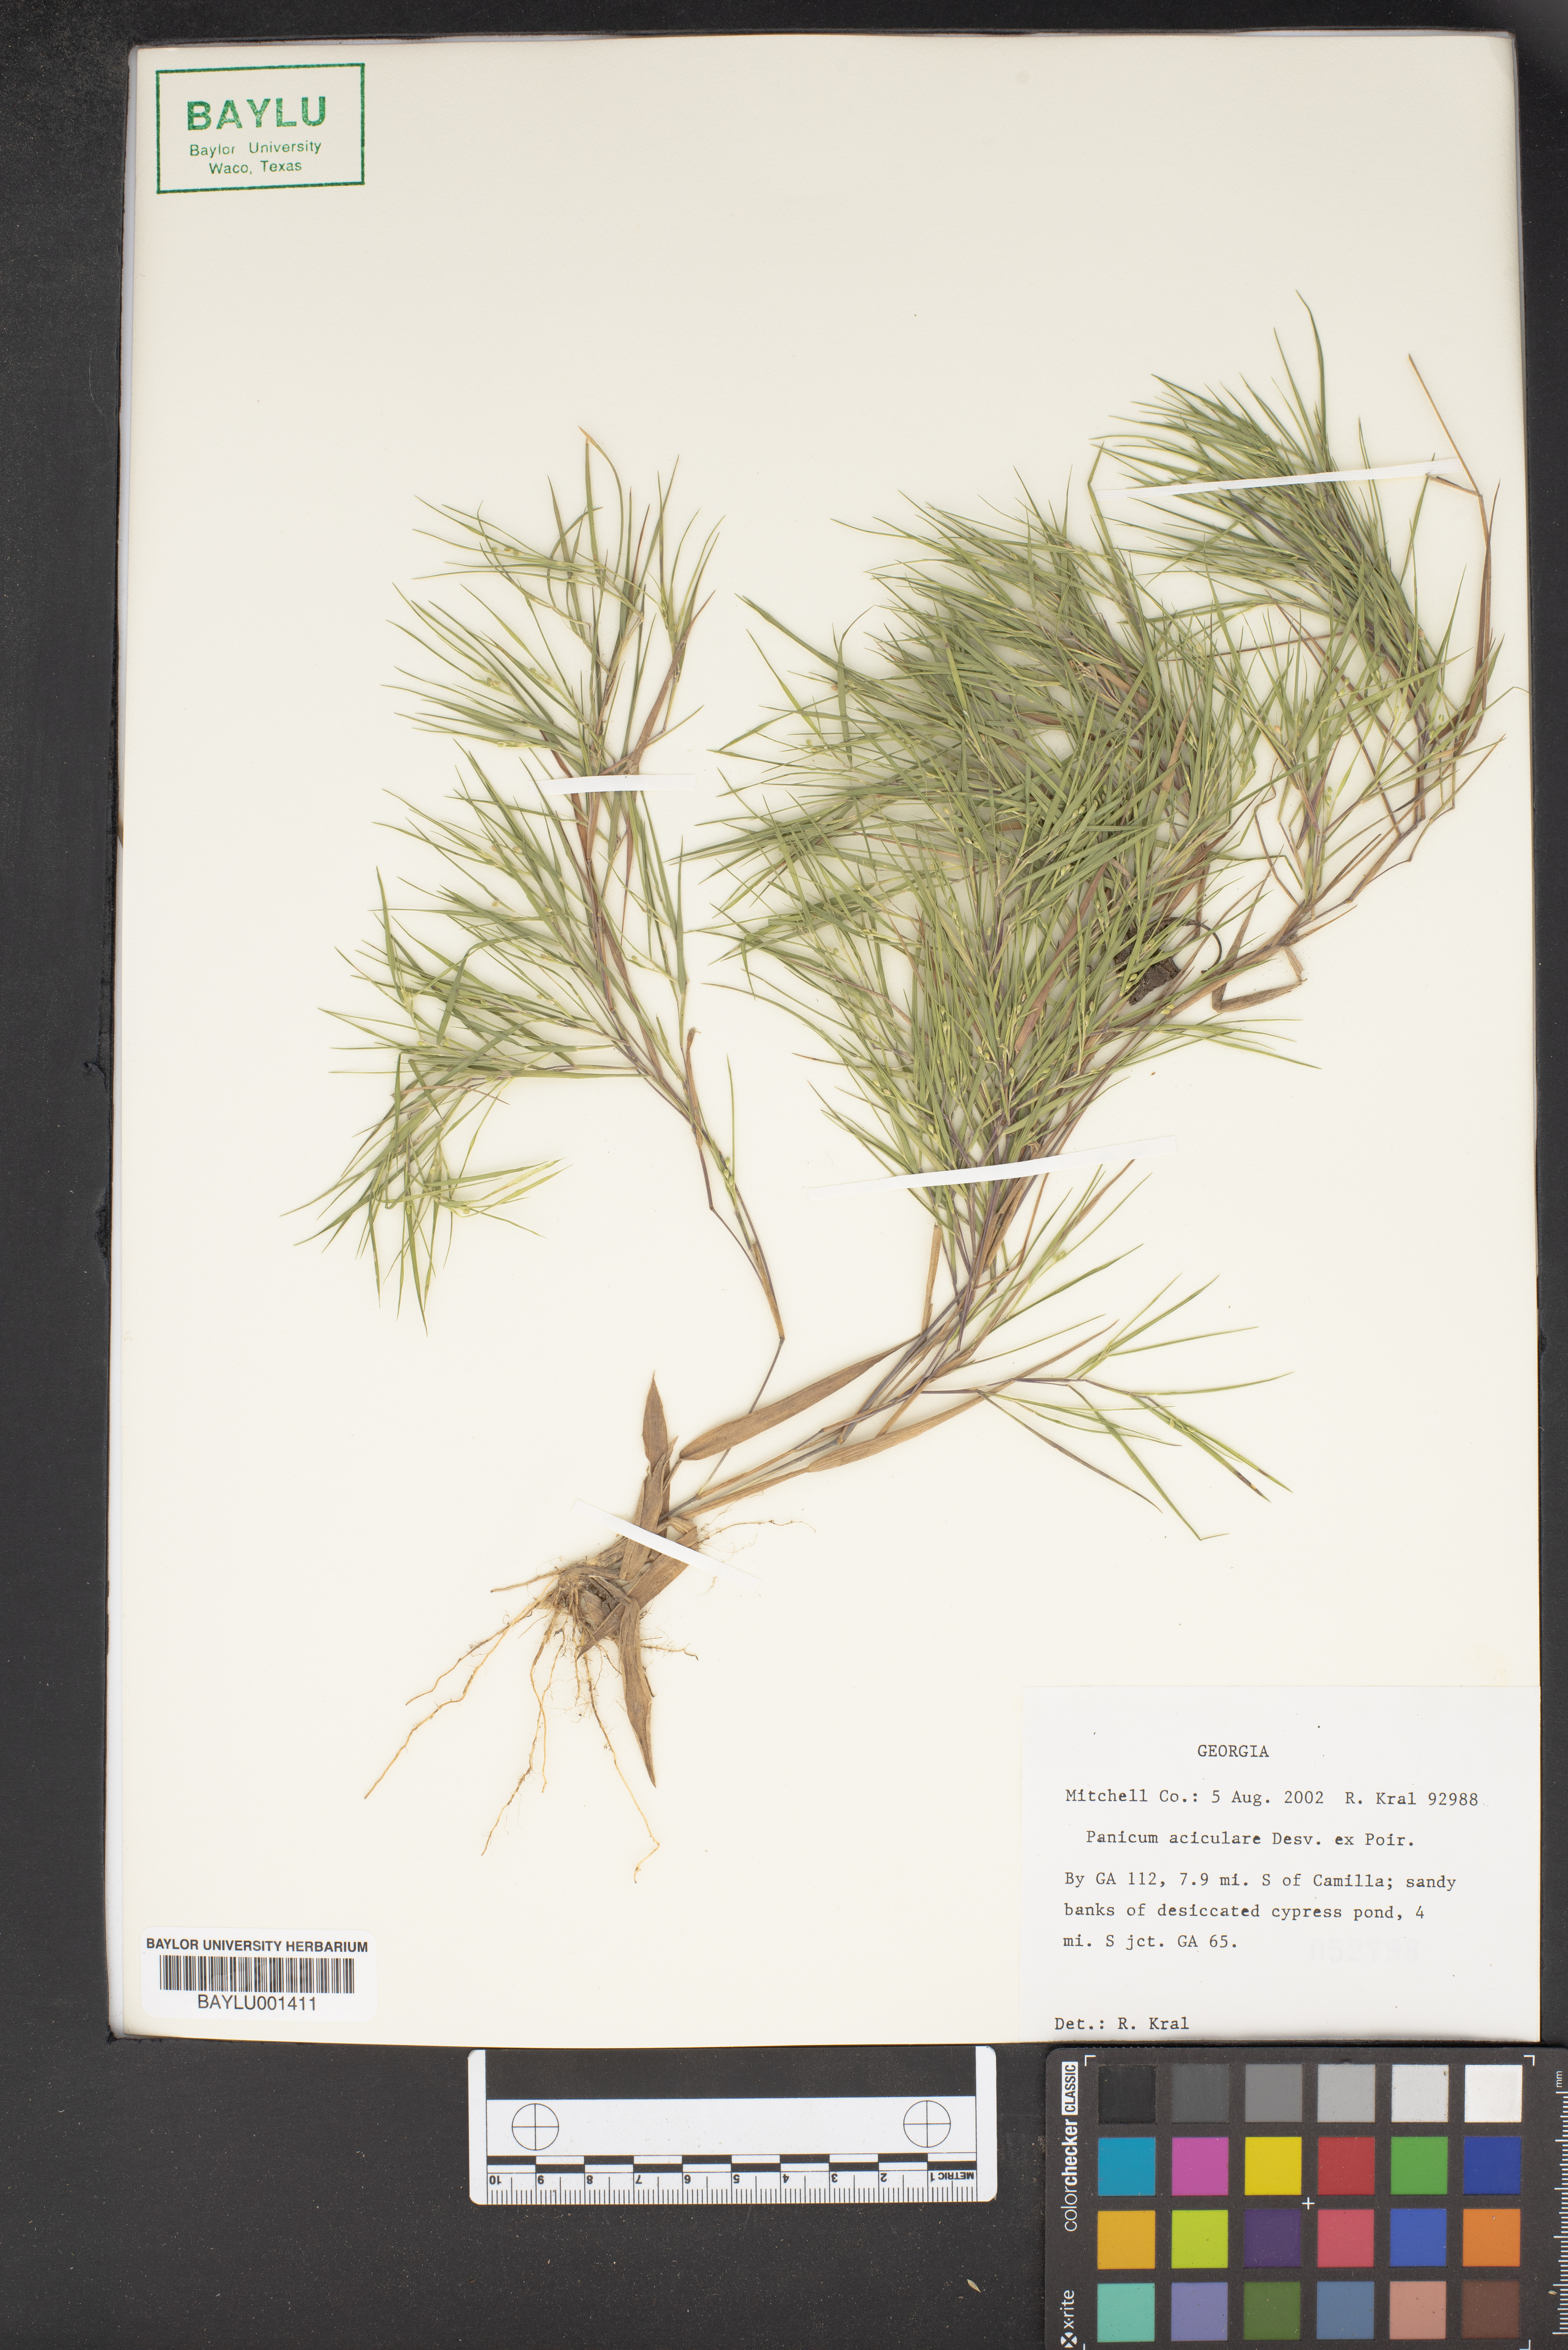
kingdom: Plantae
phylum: Tracheophyta
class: Liliopsida
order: Poales
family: Poaceae
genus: Dichanthelium
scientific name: Dichanthelium aciculare
